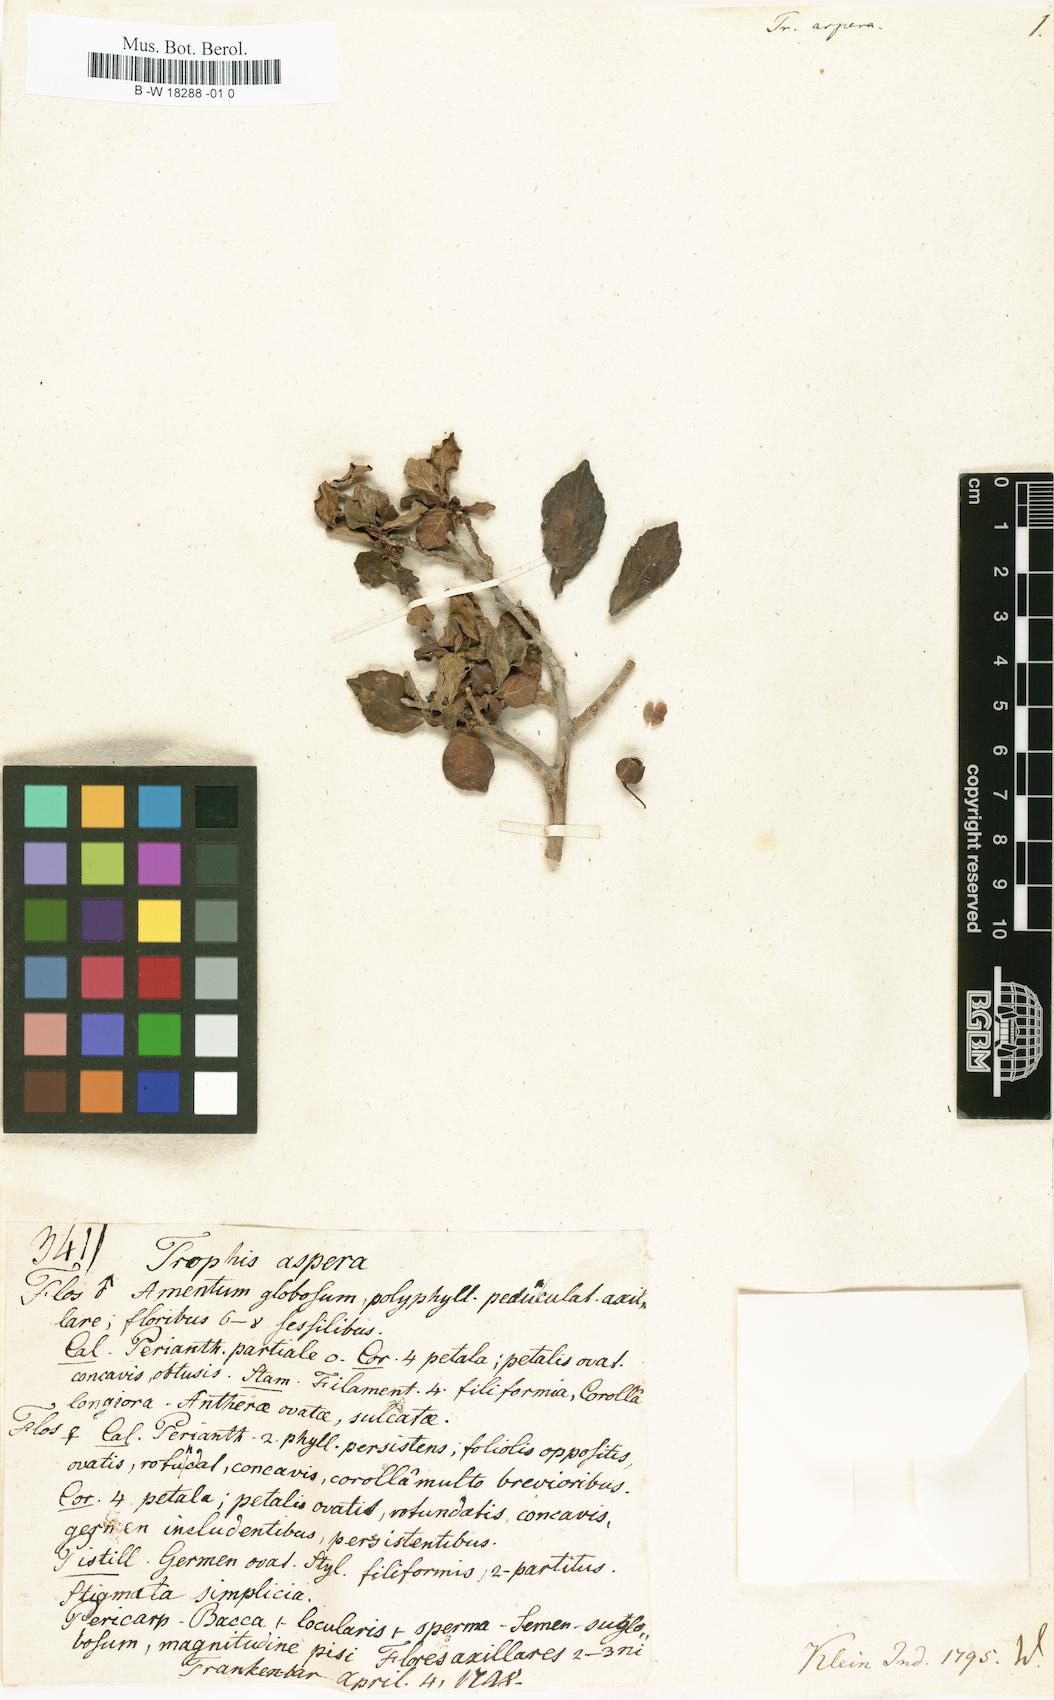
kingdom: Plantae
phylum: Tracheophyta
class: Magnoliopsida
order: Rosales
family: Moraceae
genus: Streblus
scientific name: Streblus asper
